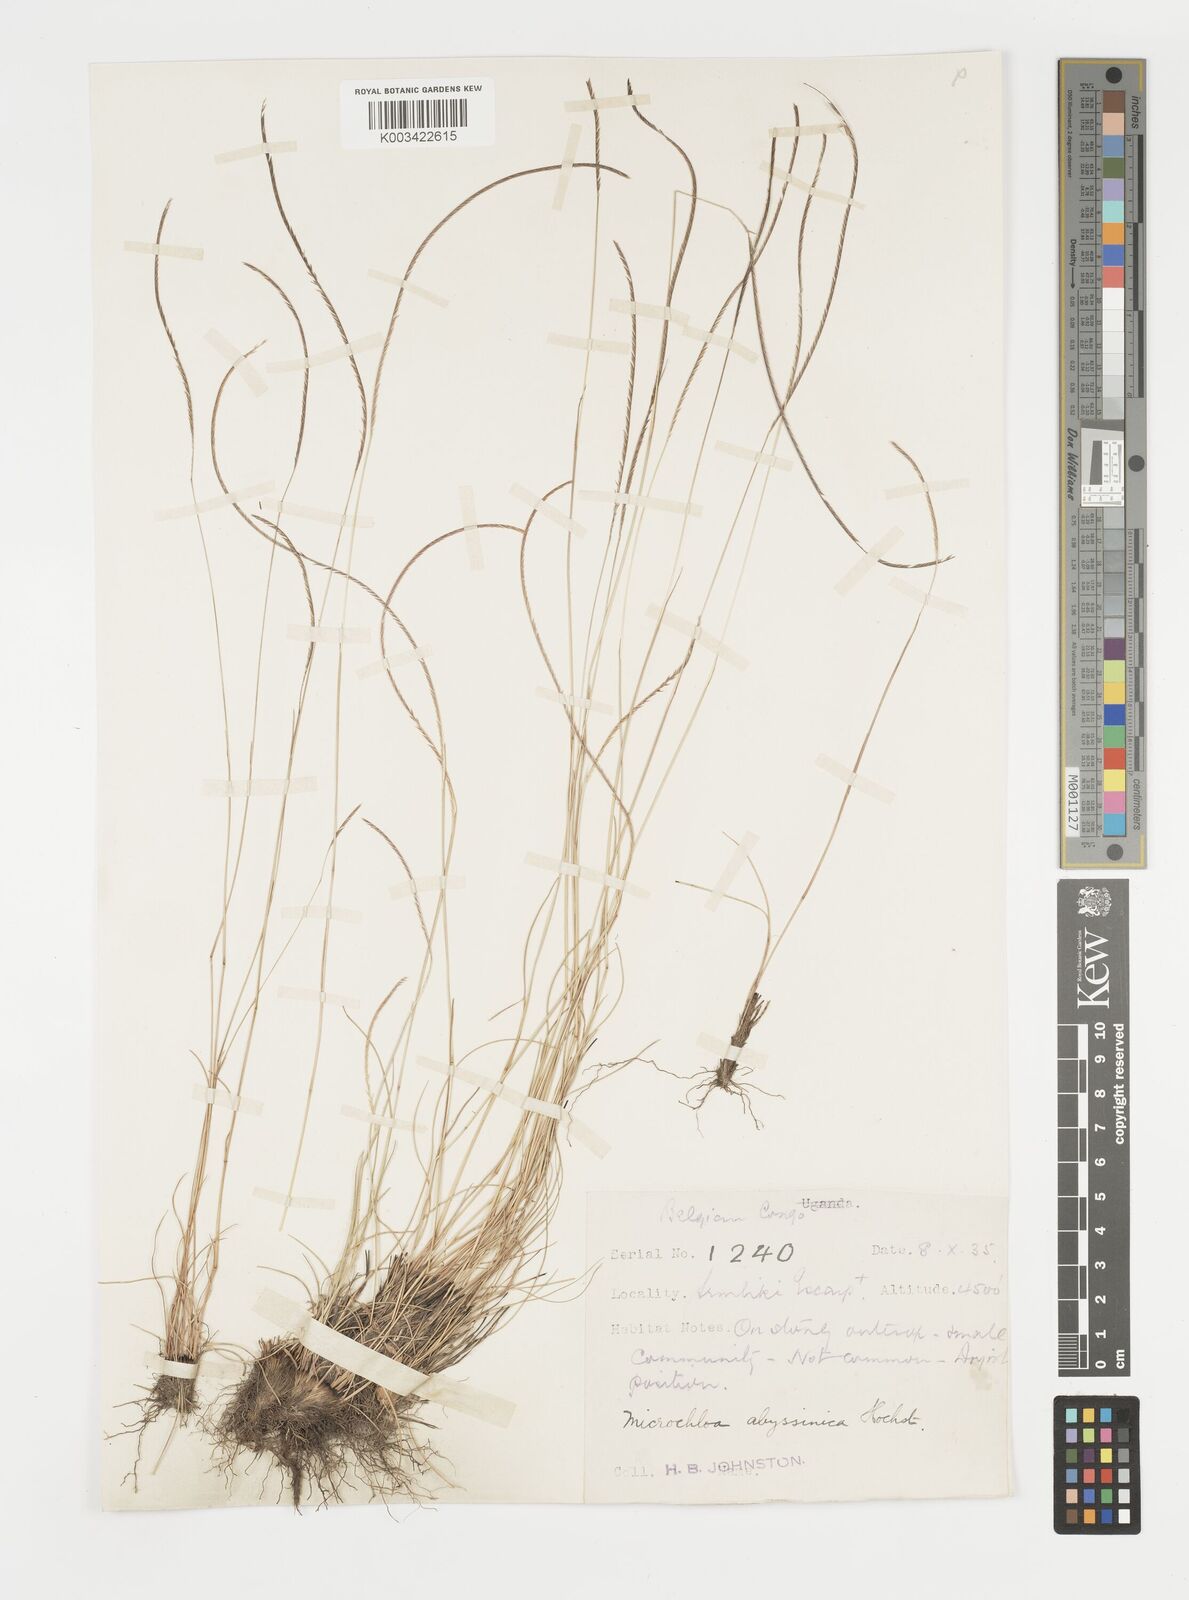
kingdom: Plantae
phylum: Tracheophyta
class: Liliopsida
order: Poales
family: Poaceae
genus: Microchloa
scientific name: Microchloa kunthii
